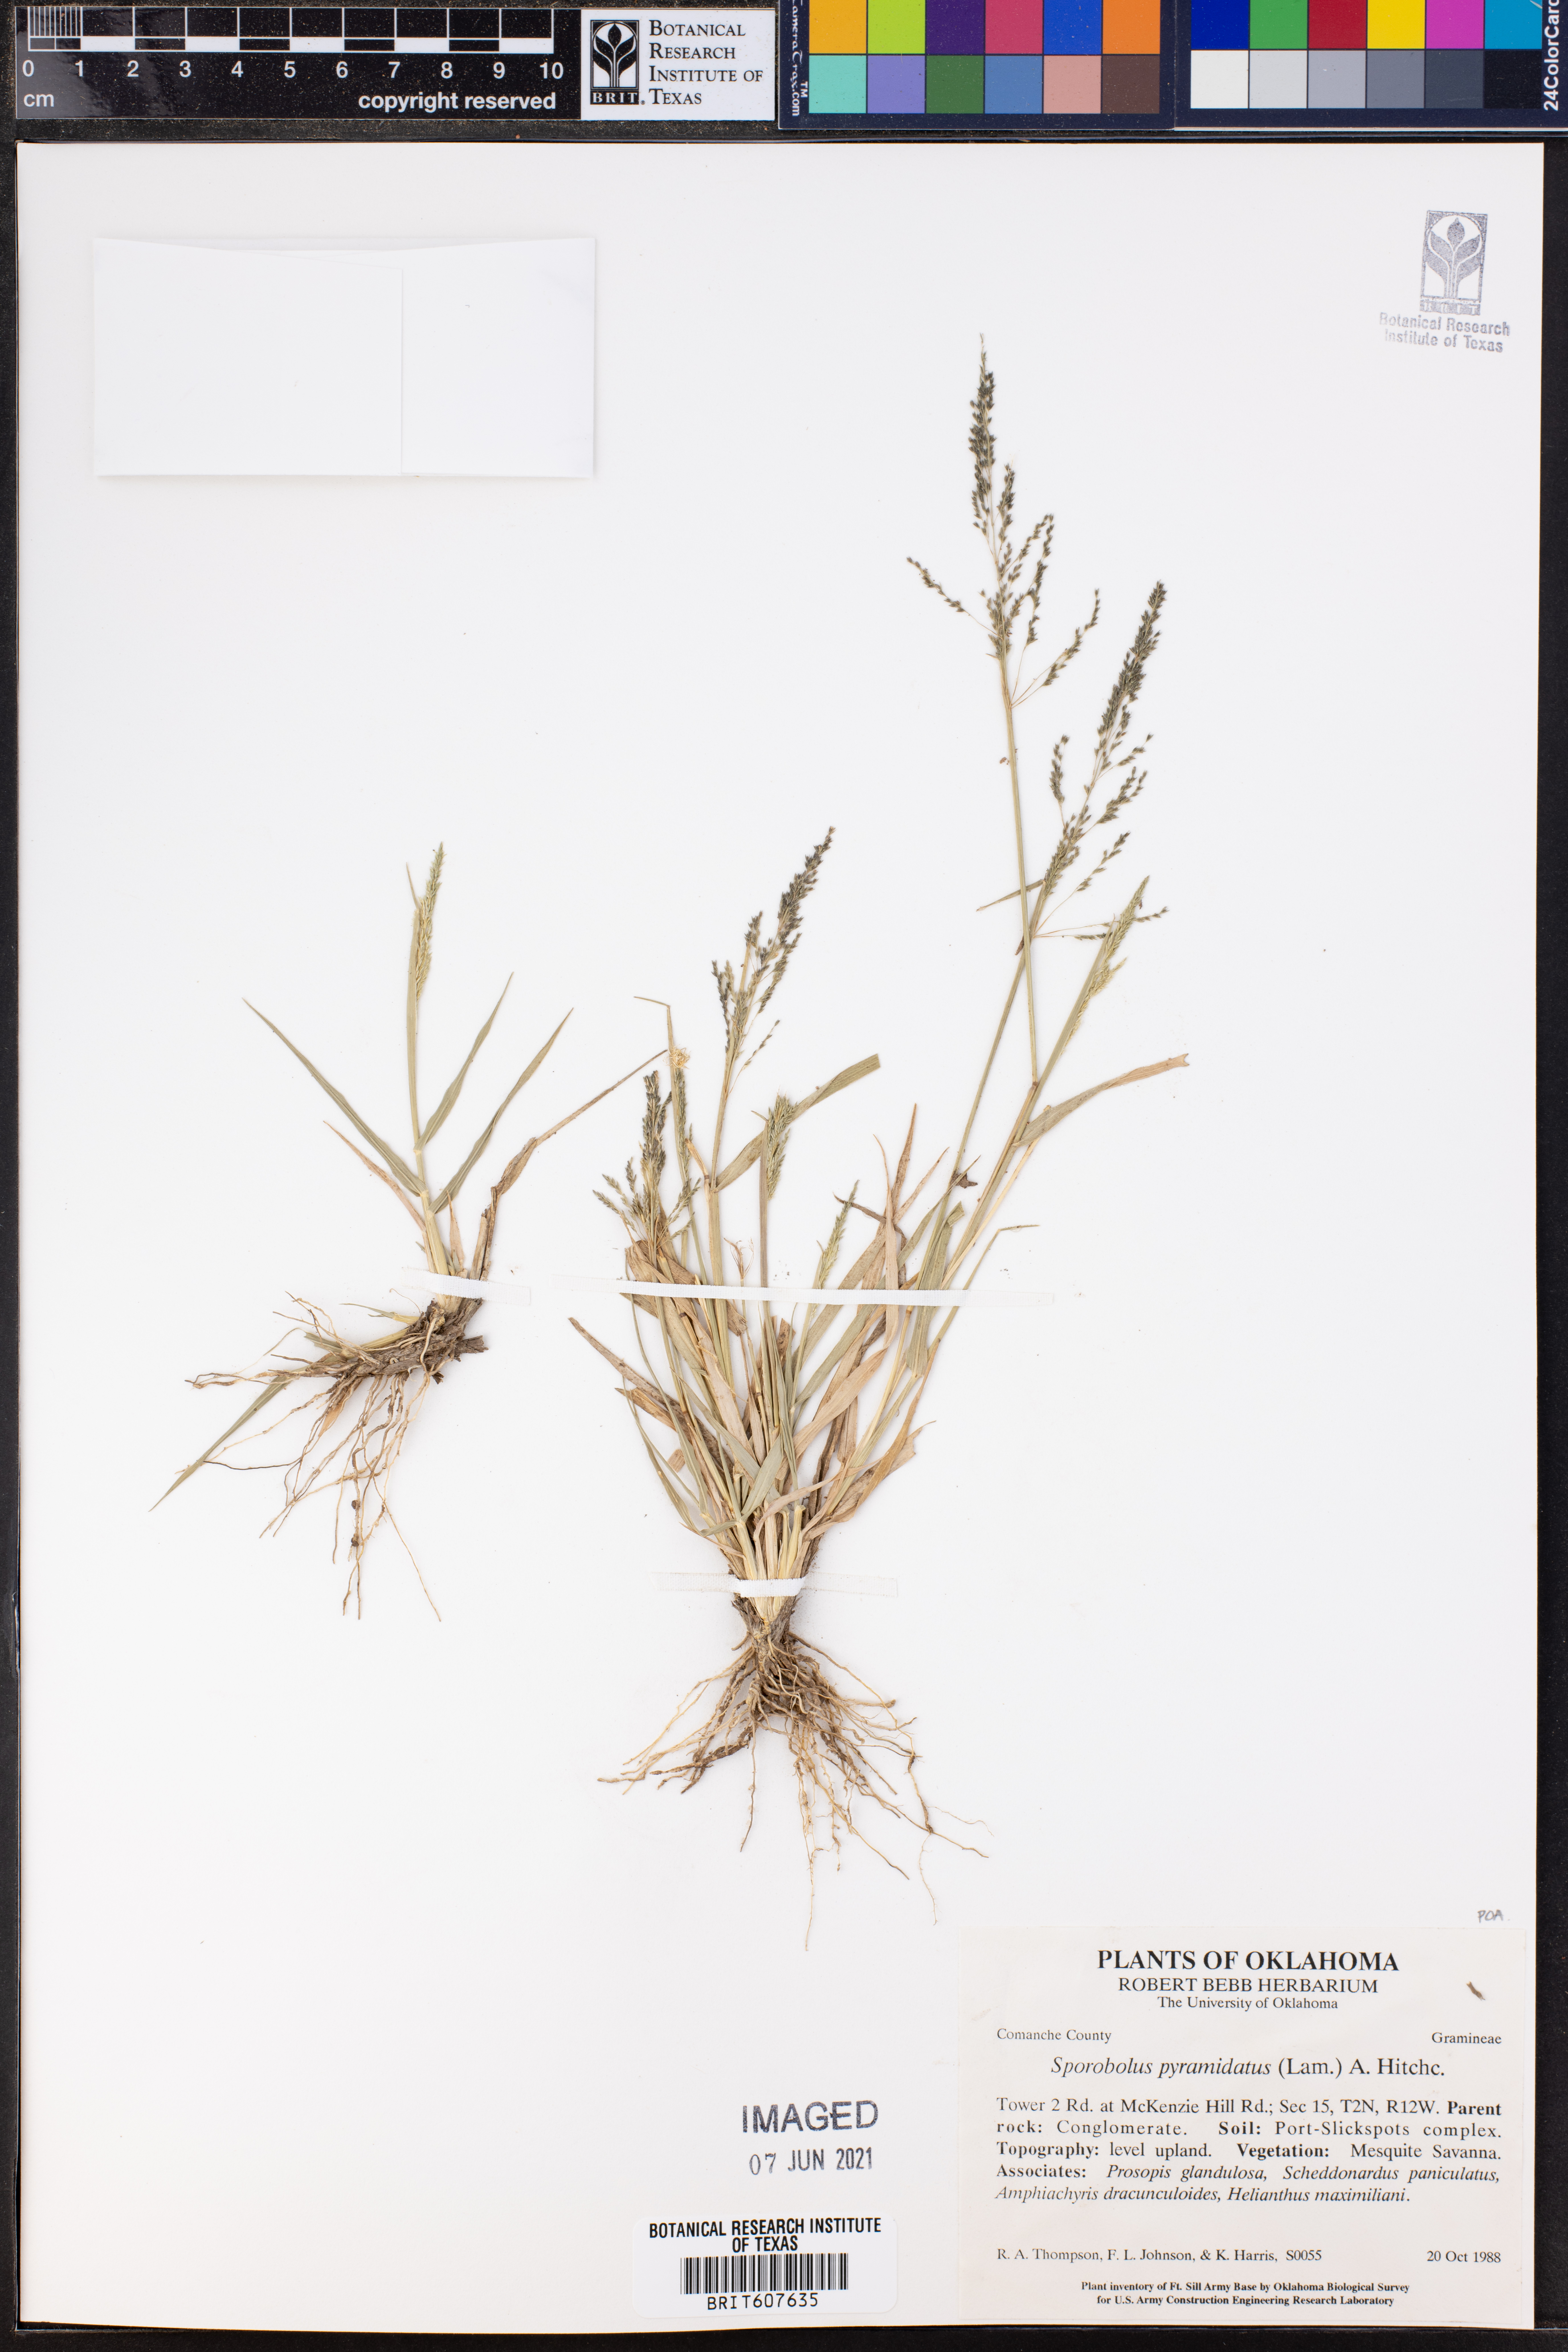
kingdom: Plantae
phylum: Tracheophyta
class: Liliopsida
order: Poales
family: Poaceae
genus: Sporobolus
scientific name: Sporobolus pyramidatus
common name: Whorled dropseed
